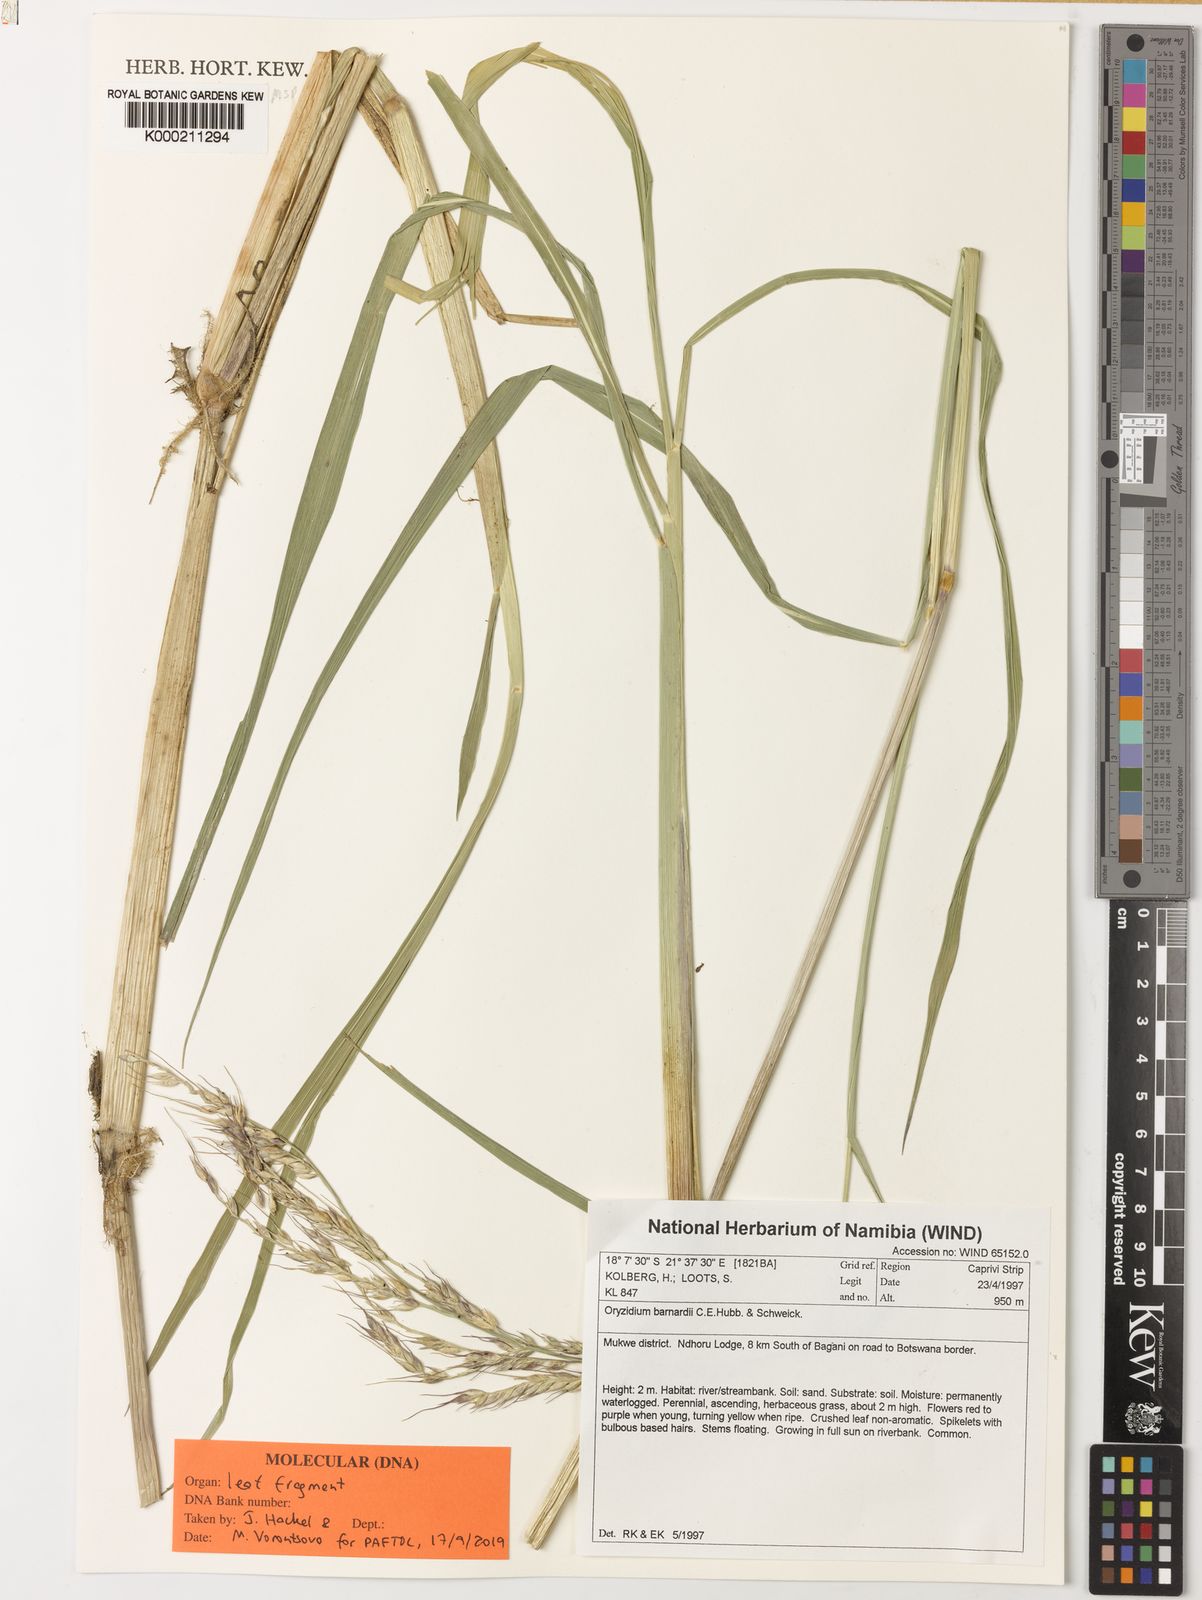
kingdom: Plantae
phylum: Tracheophyta
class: Liliopsida
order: Poales
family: Poaceae
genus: Oryzidium
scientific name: Oryzidium barnardii
